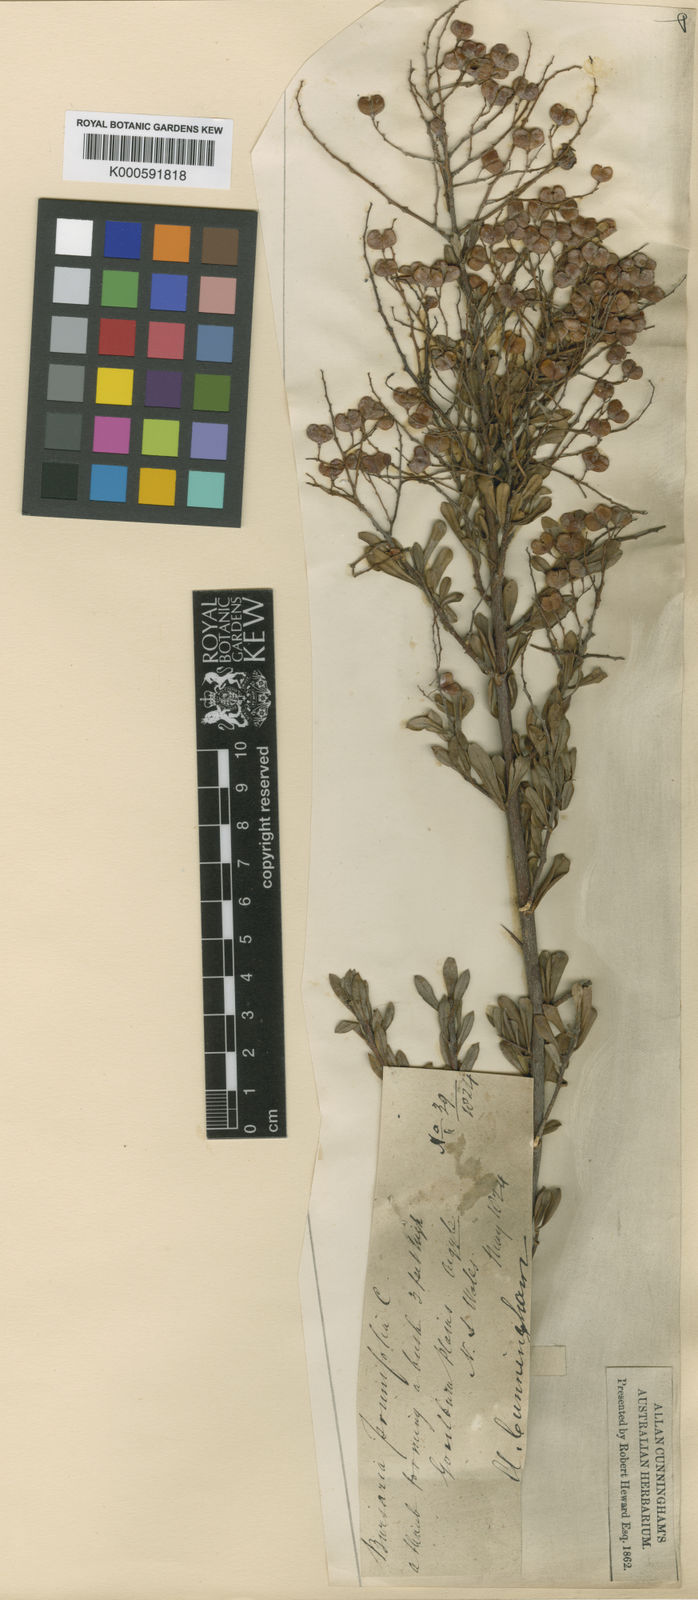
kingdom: Plantae
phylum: Tracheophyta
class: Magnoliopsida
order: Apiales
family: Pittosporaceae
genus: Bursaria
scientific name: Bursaria spinosa
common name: Australian blackthorn
